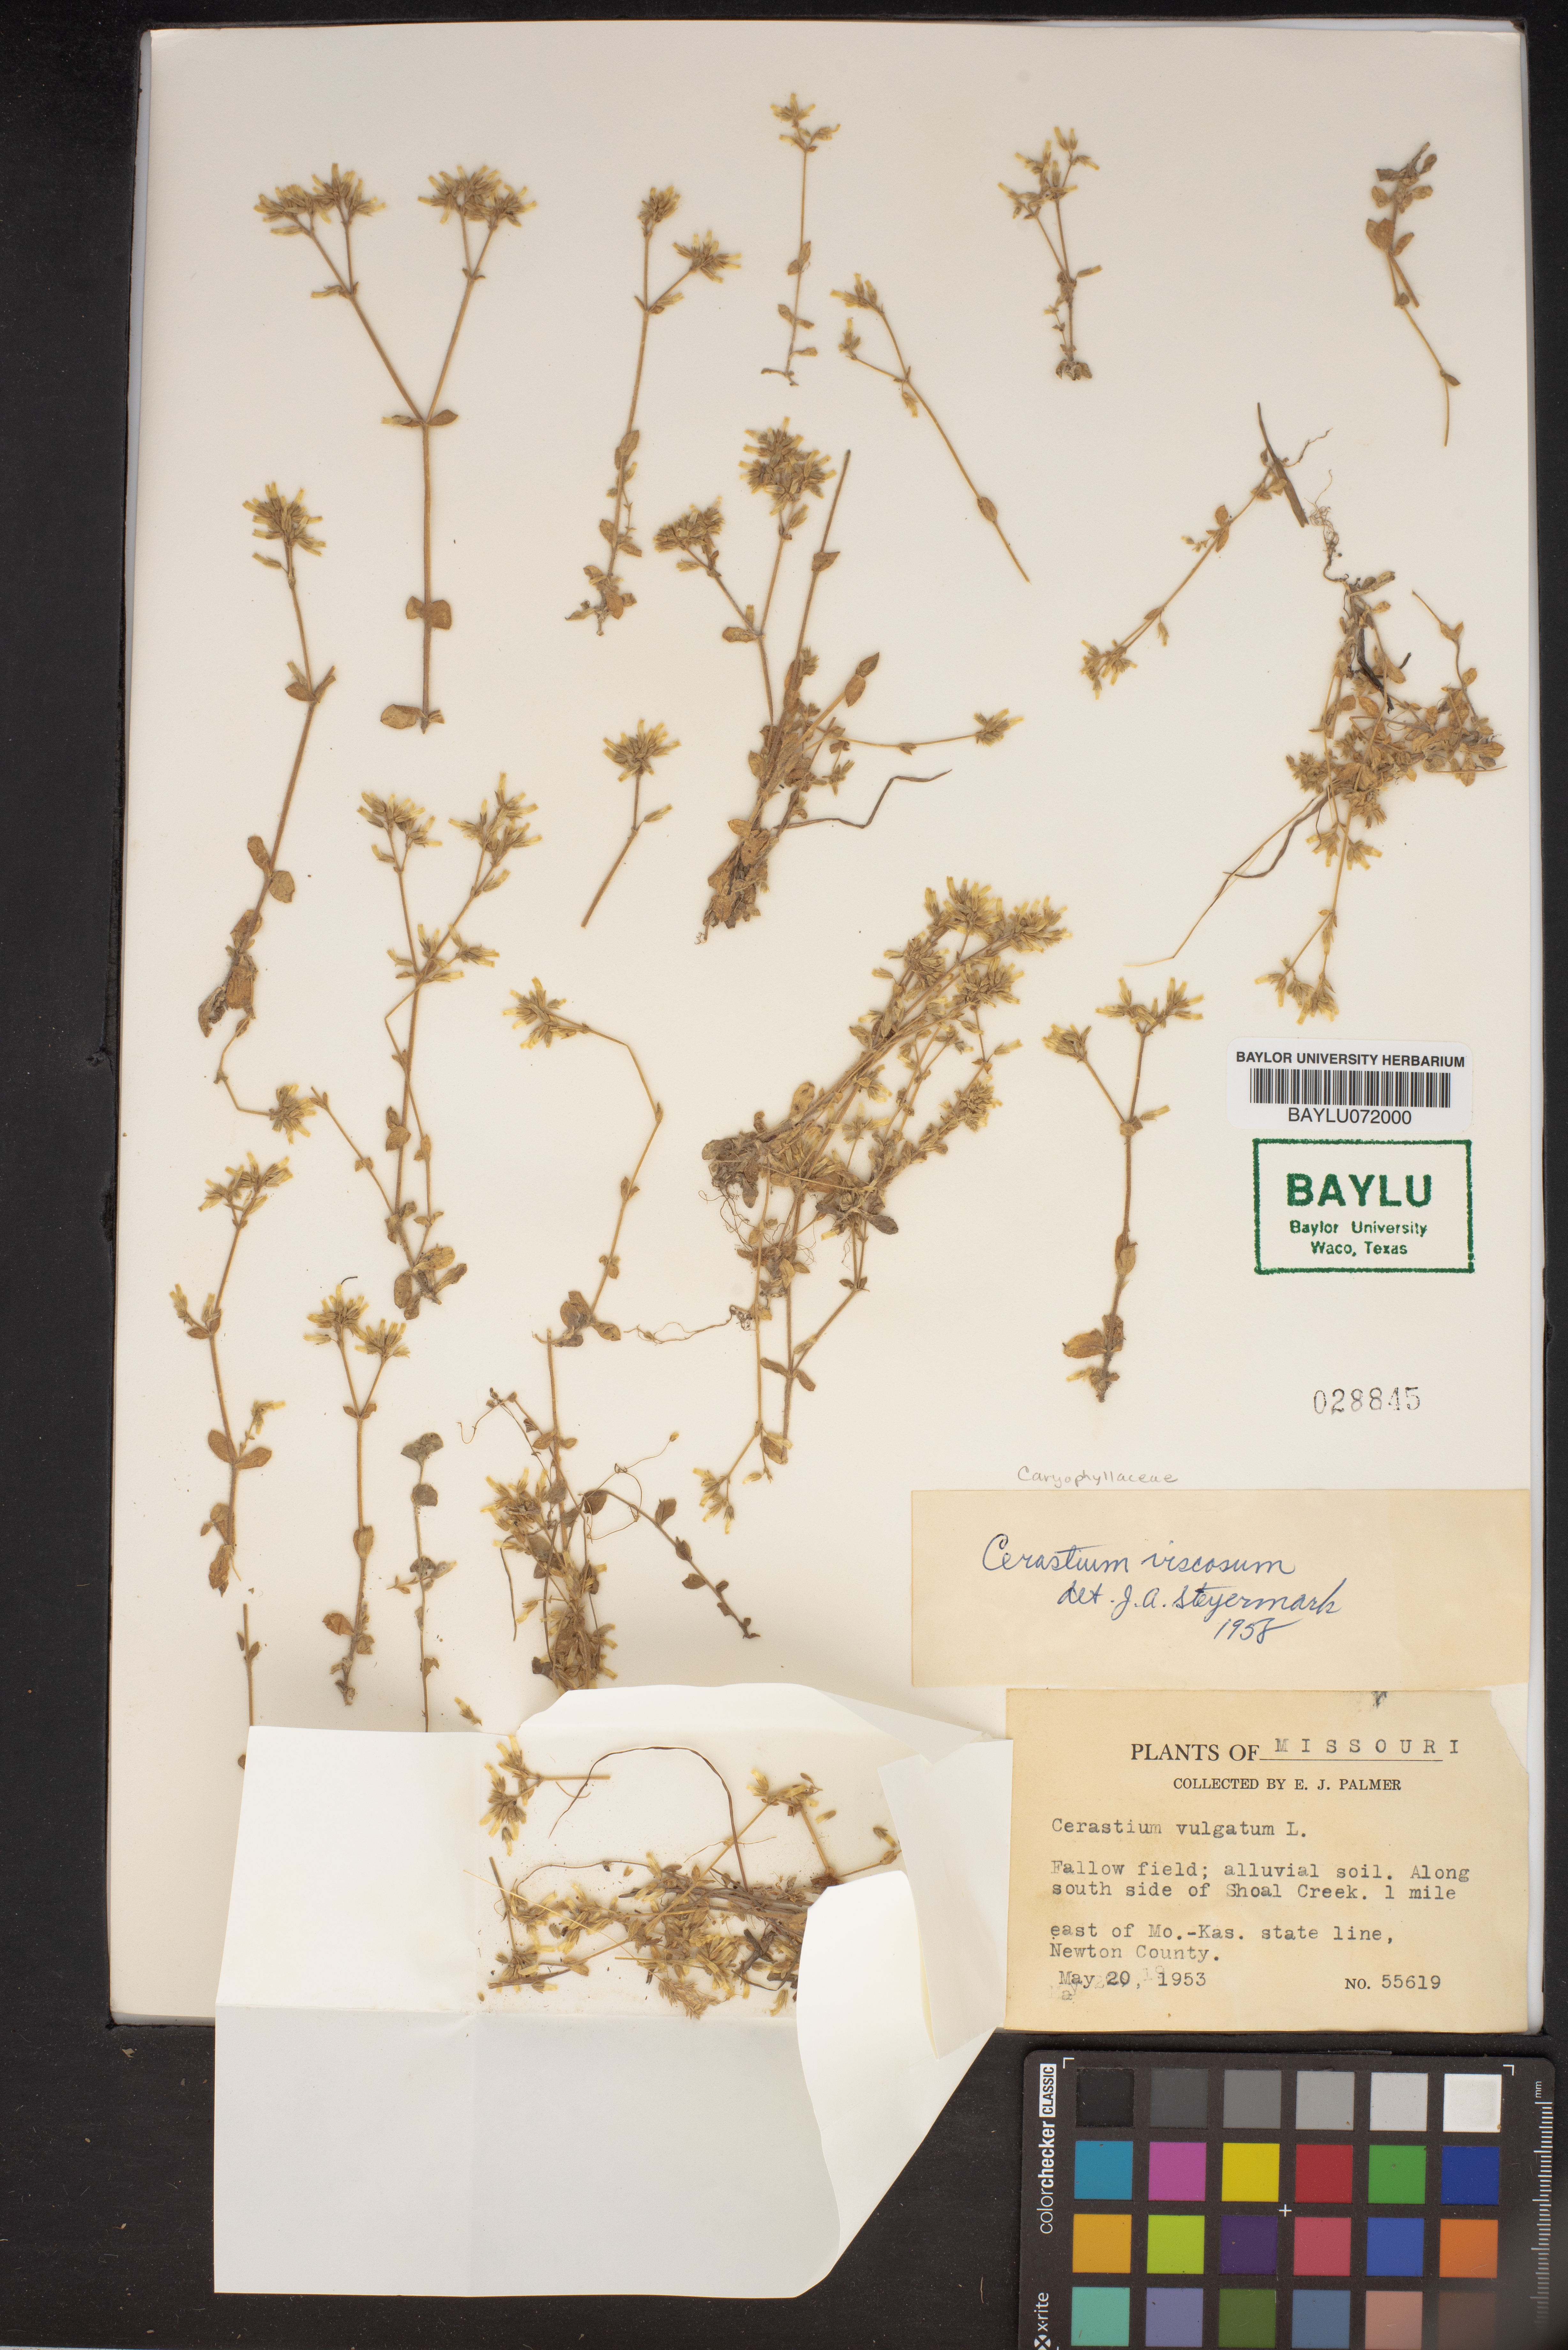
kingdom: Plantae
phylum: Tracheophyta
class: Magnoliopsida
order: Caryophyllales
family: Caryophyllaceae
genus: Cerastium
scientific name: Cerastium holosteoides
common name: Big chickweed
